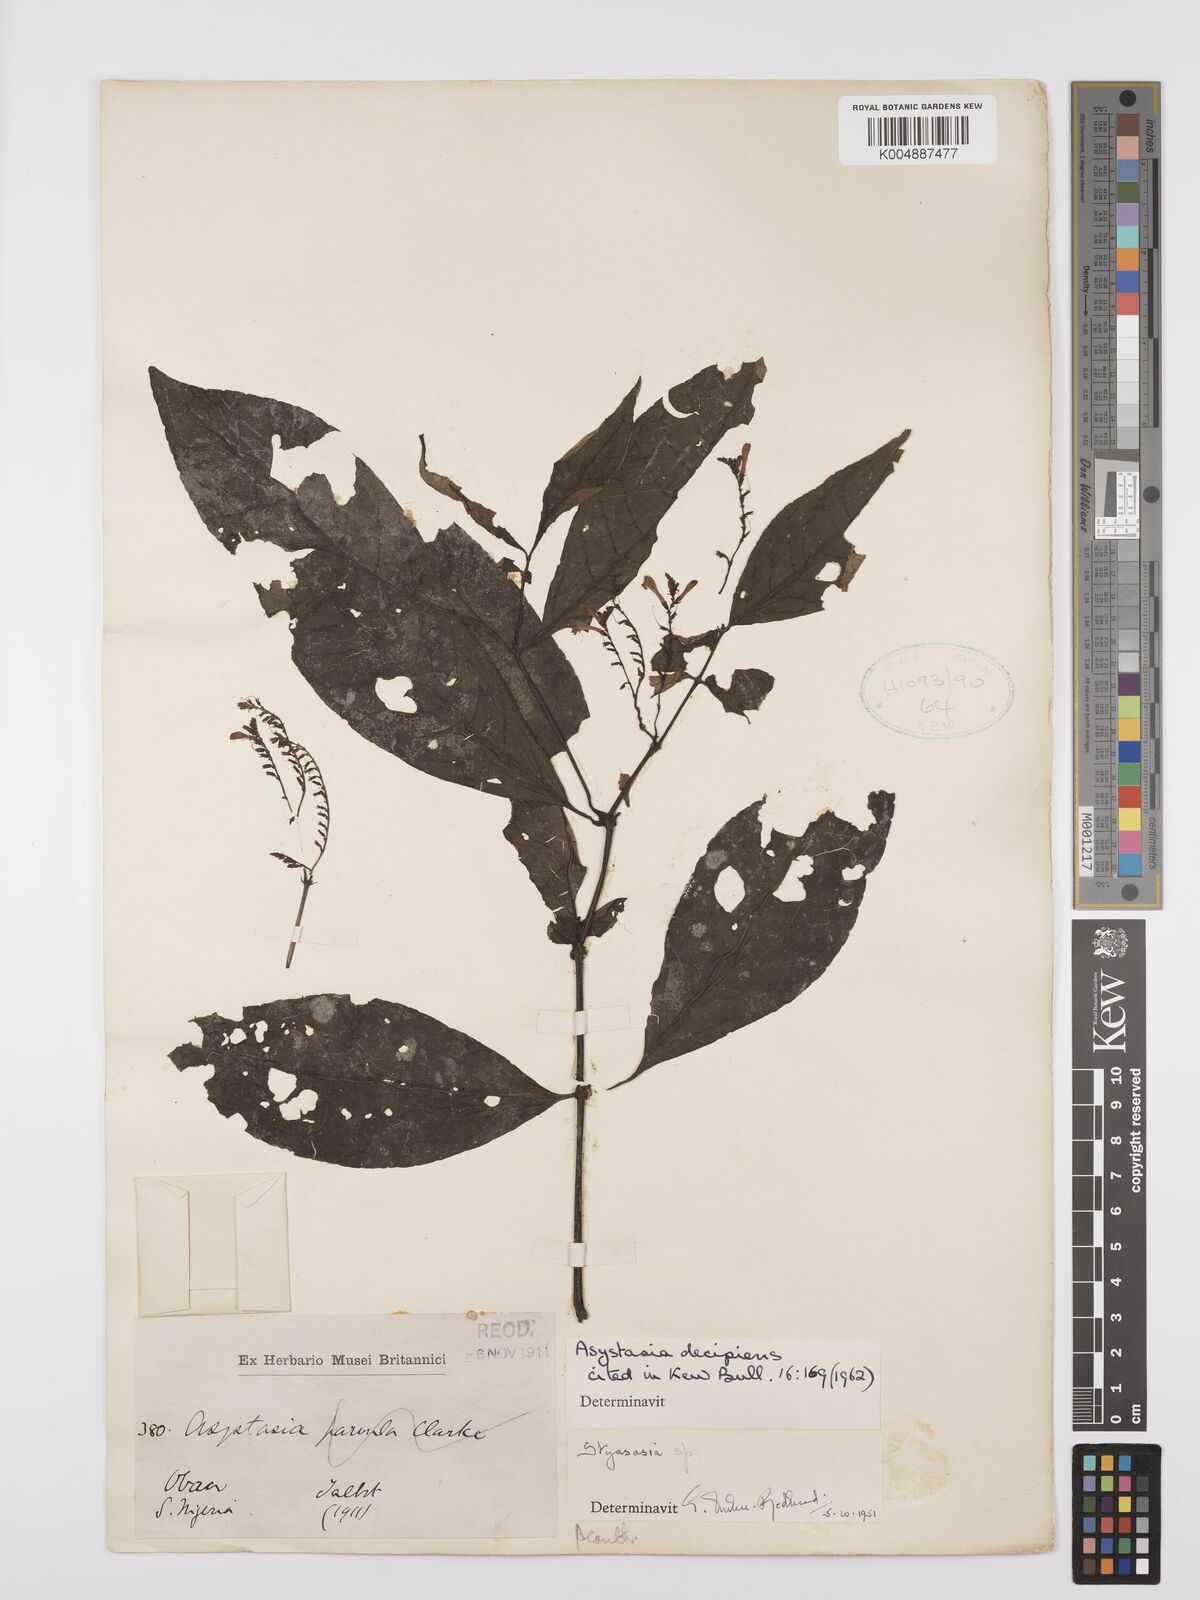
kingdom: Plantae
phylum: Tracheophyta
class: Magnoliopsida
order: Lamiales
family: Acanthaceae
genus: Asystasia
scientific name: Asystasia decipiens
